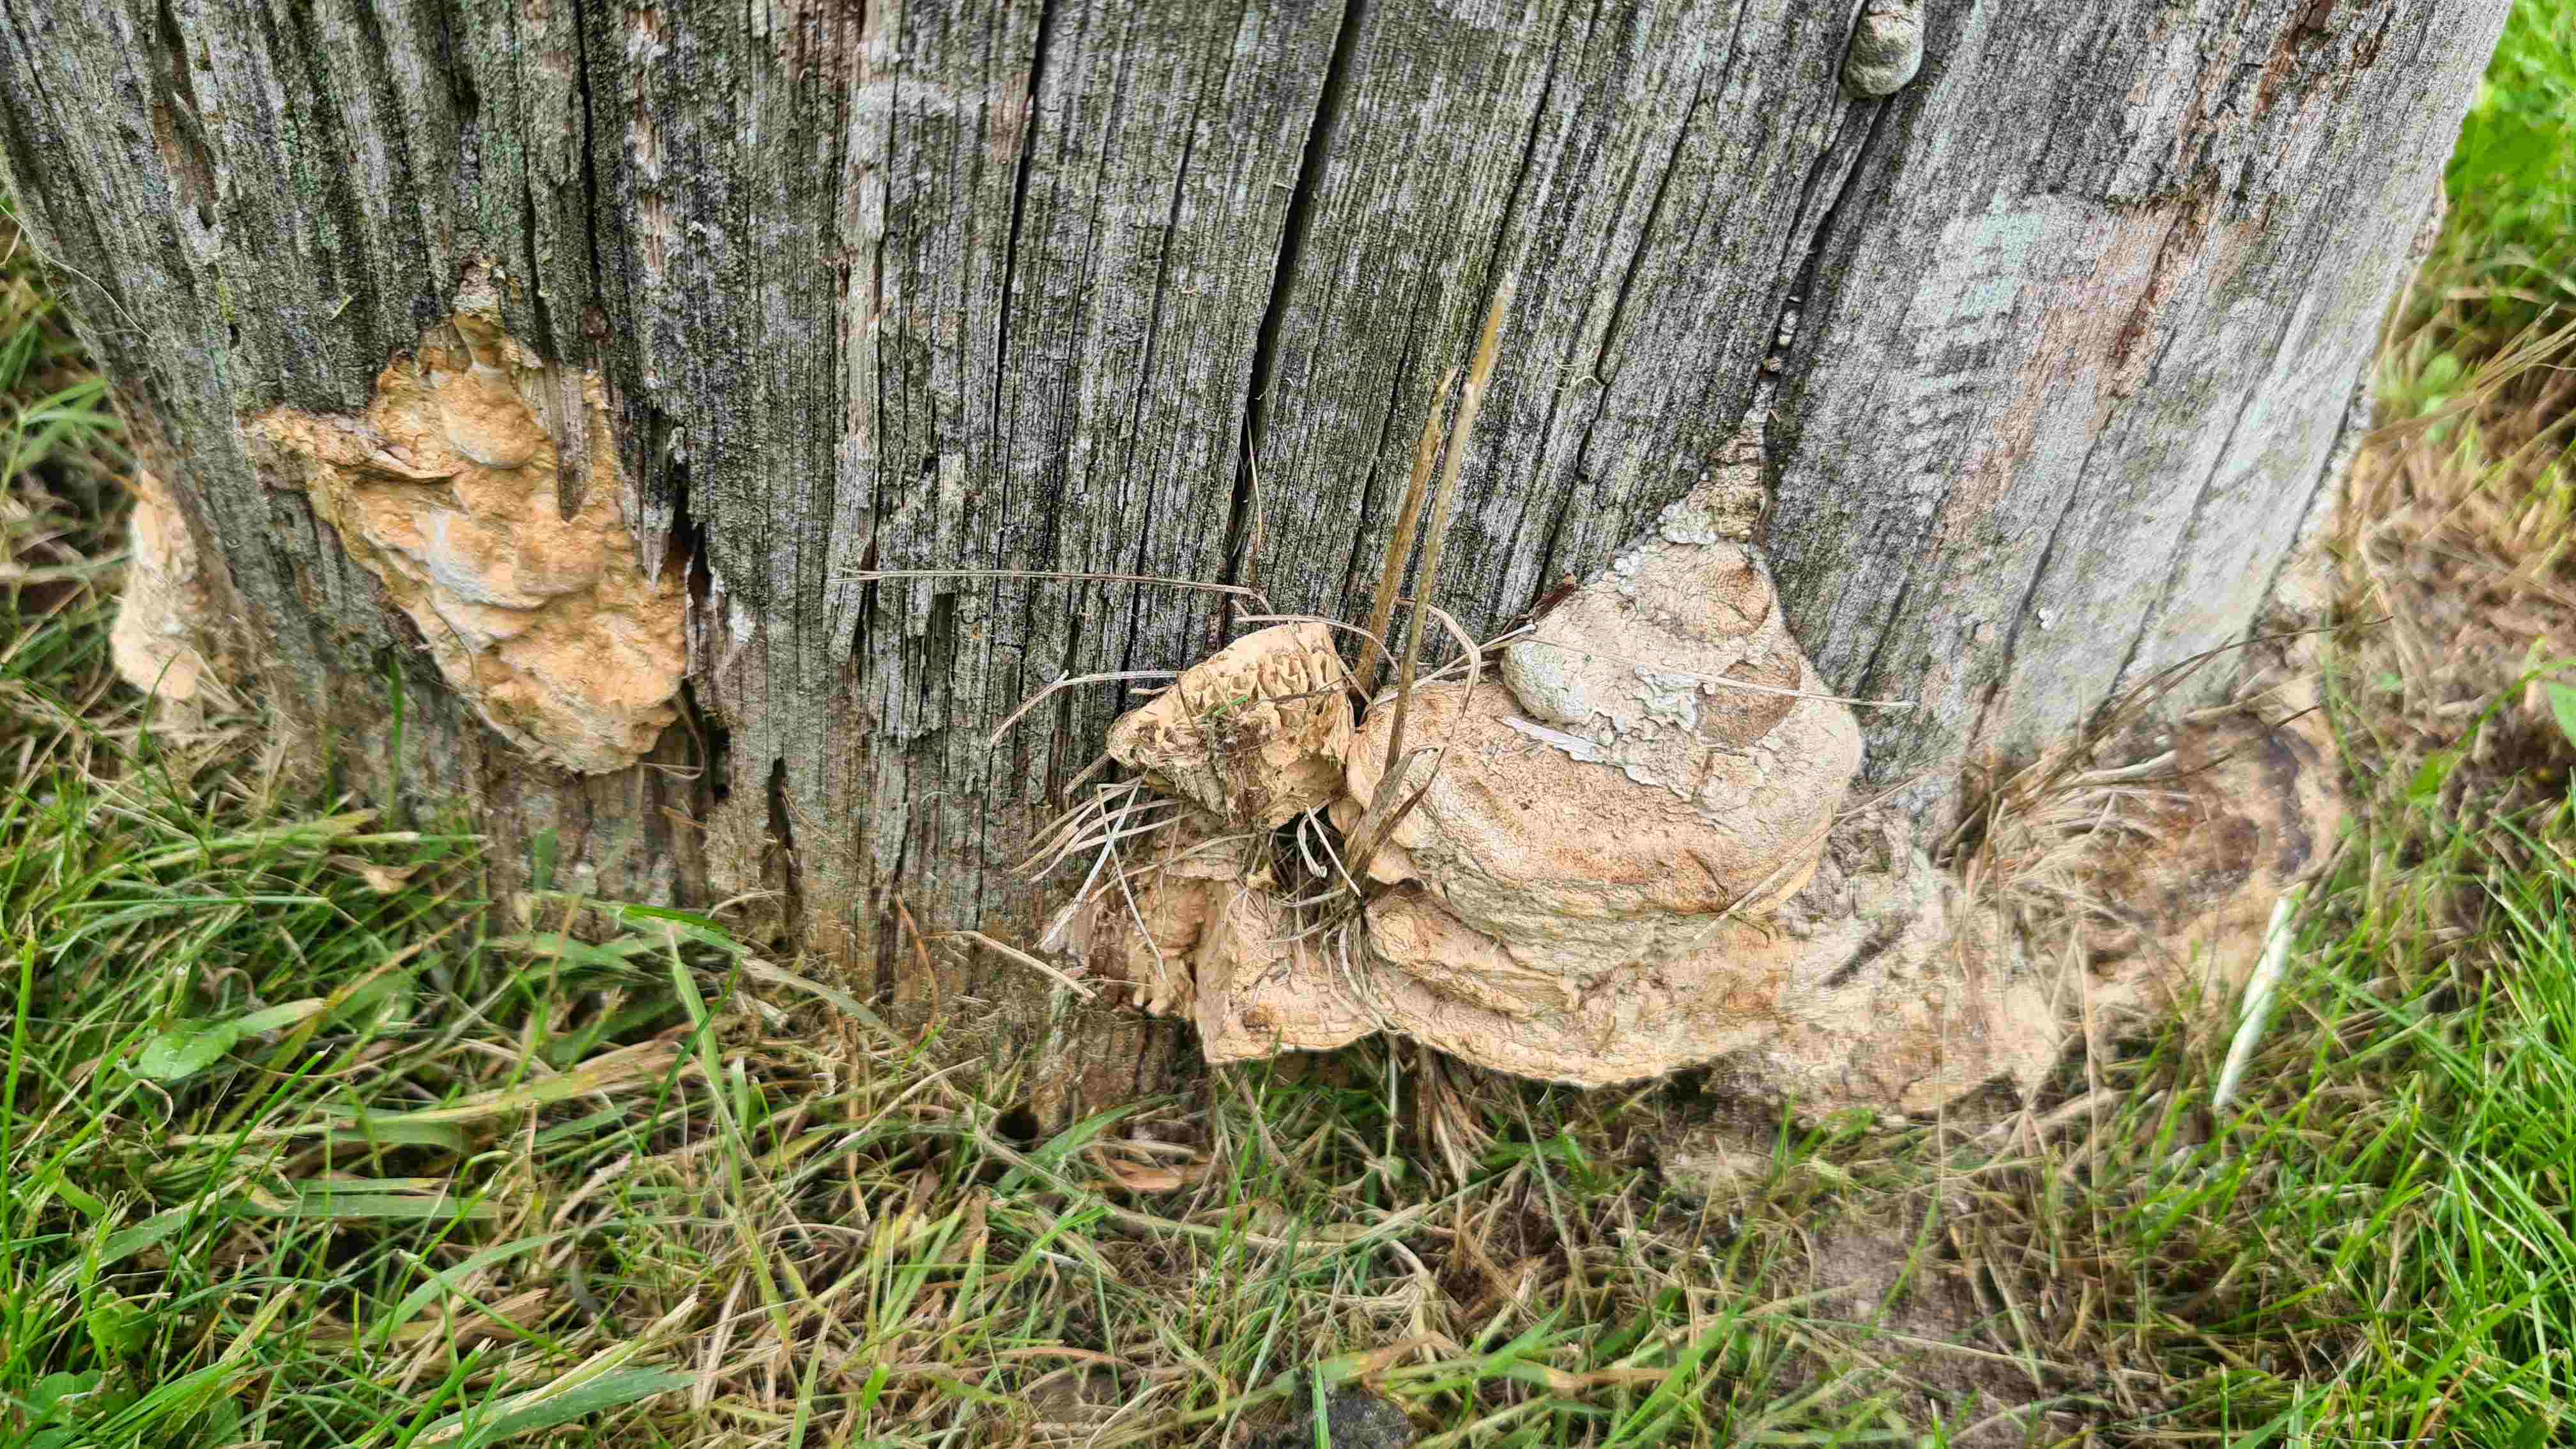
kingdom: Fungi
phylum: Basidiomycota
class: Agaricomycetes
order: Polyporales
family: Fomitopsidaceae
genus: Daedalea
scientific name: Daedalea quercina
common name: ege-labyrintsvamp
